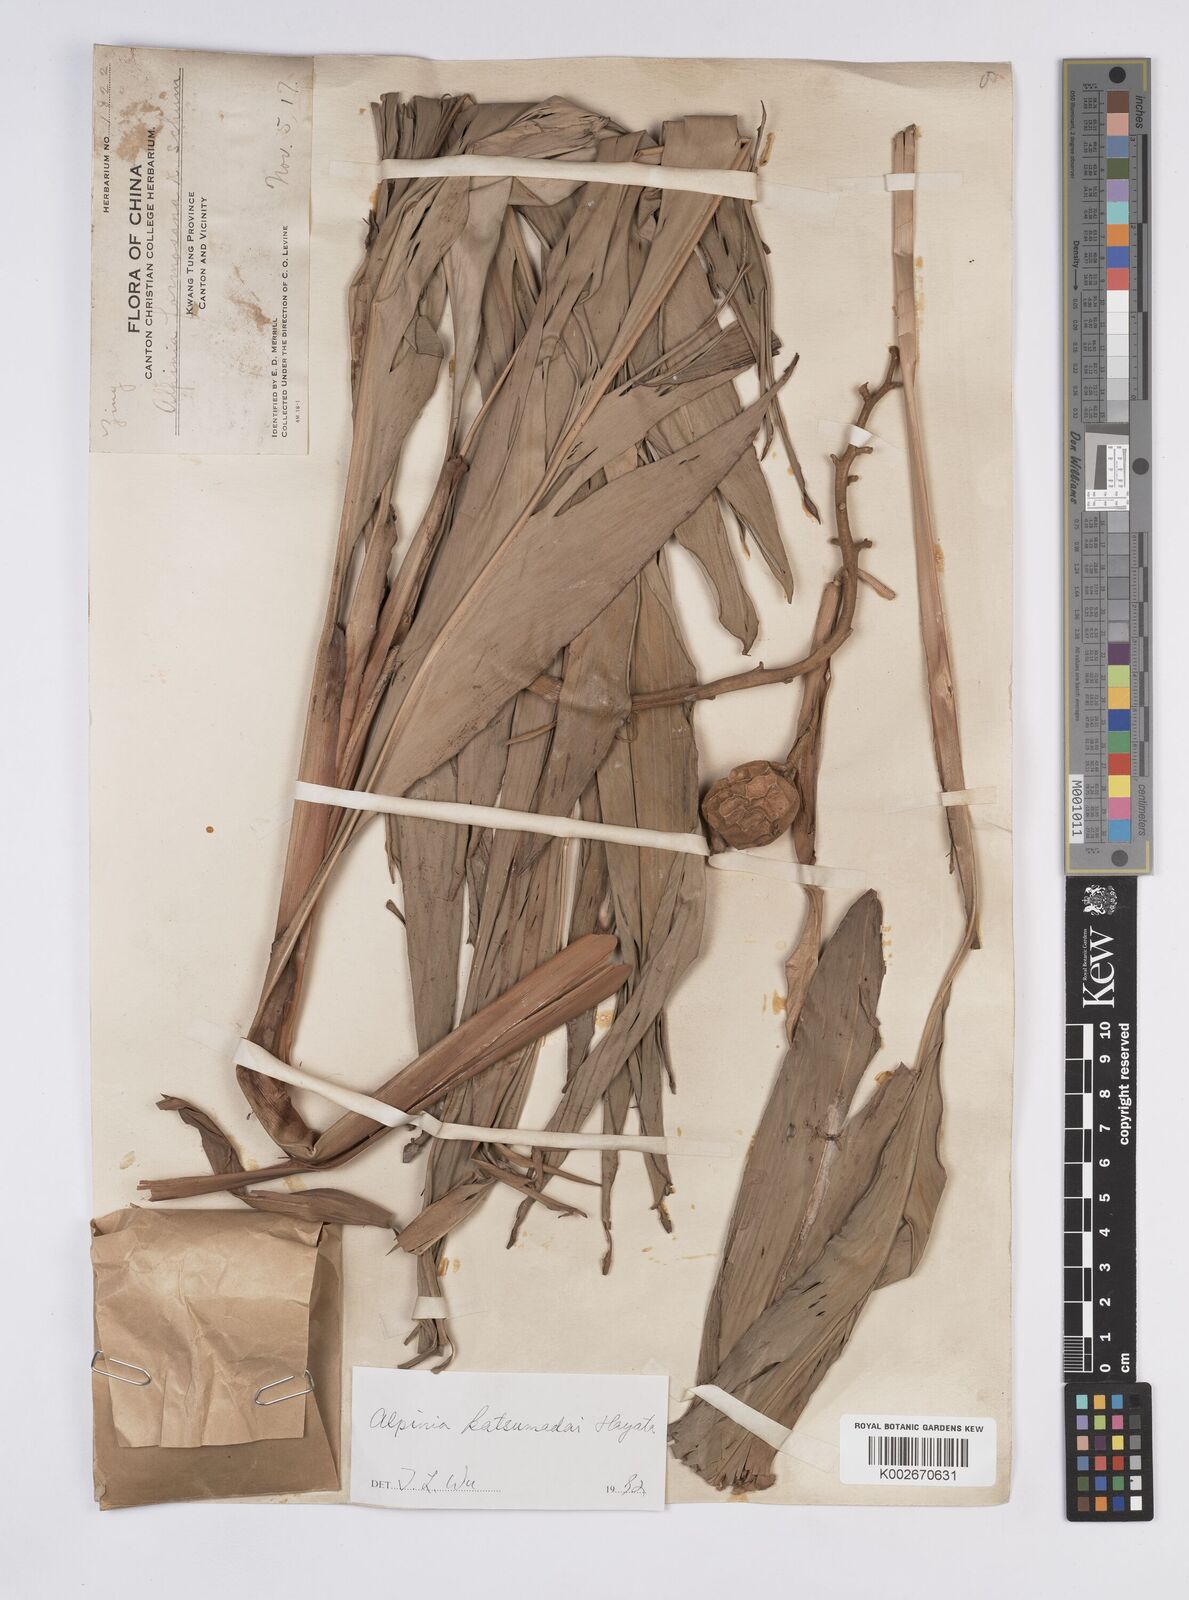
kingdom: Plantae
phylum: Tracheophyta
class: Liliopsida
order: Zingiberales
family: Zingiberaceae
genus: Alpinia
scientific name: Alpinia hainanensis
